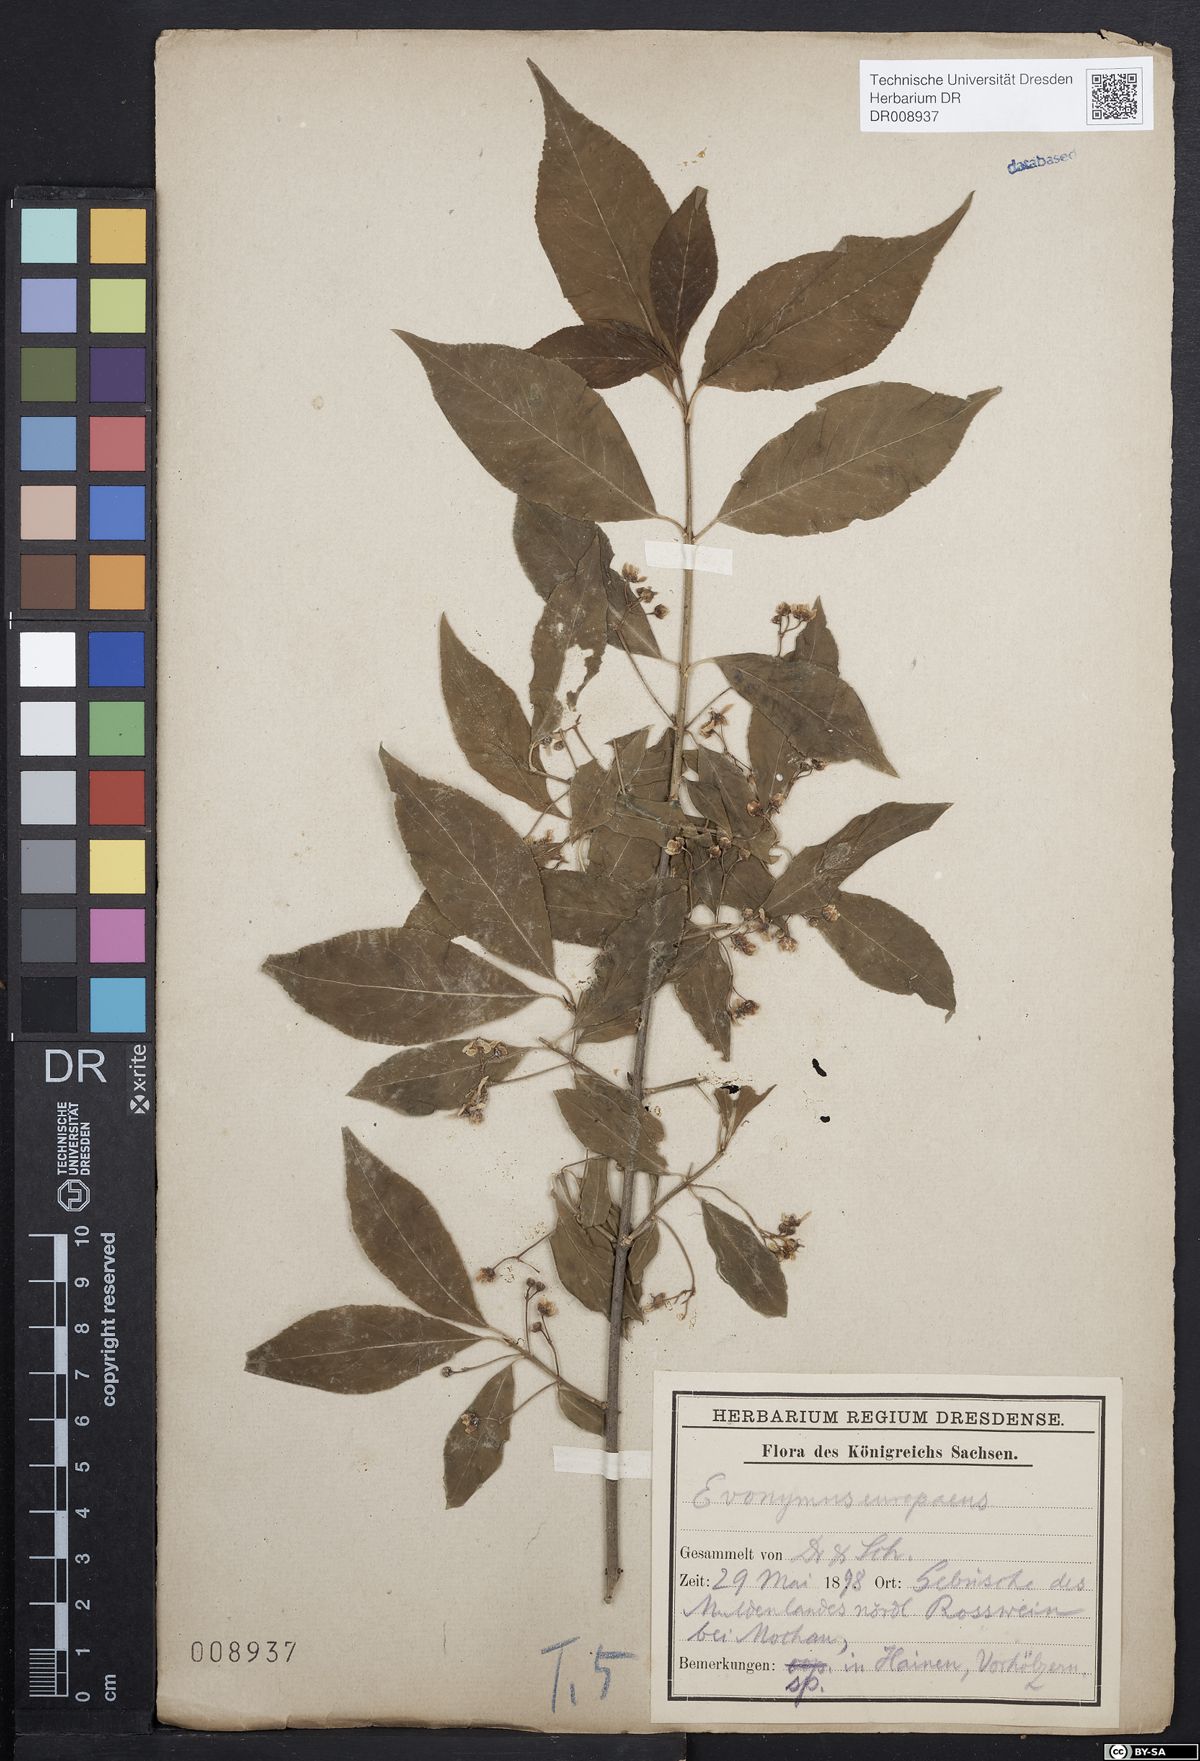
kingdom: Plantae
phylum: Tracheophyta
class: Magnoliopsida
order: Celastrales
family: Celastraceae
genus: Euonymus
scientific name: Euonymus europaeus
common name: Spindle
